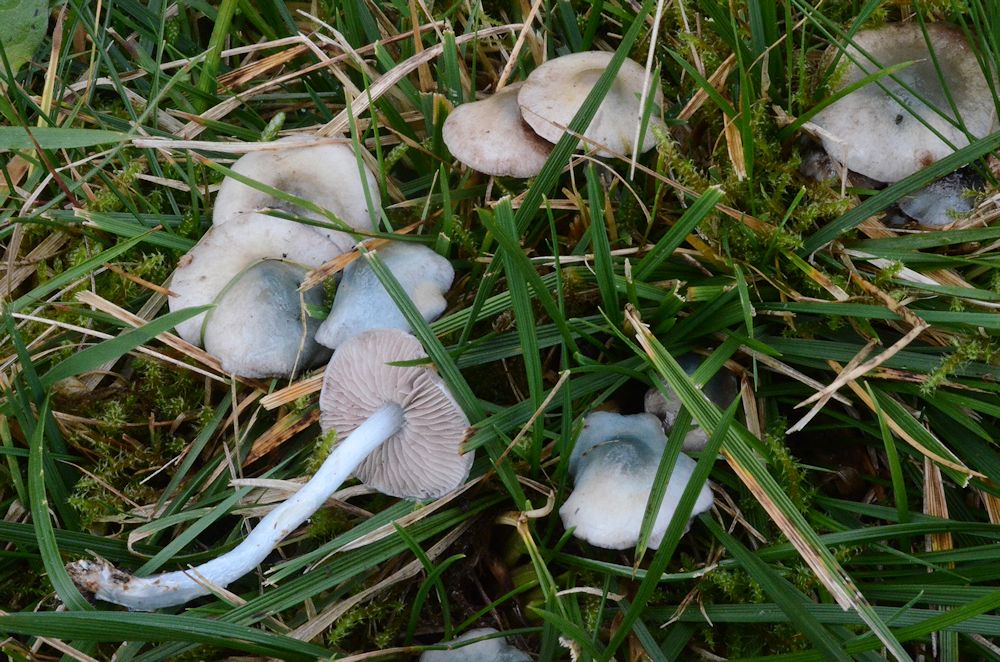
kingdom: Fungi
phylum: Basidiomycota
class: Agaricomycetes
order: Agaricales
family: Strophariaceae
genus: Stropharia
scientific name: Stropharia pseudocyanea
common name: blegblå bredblad
